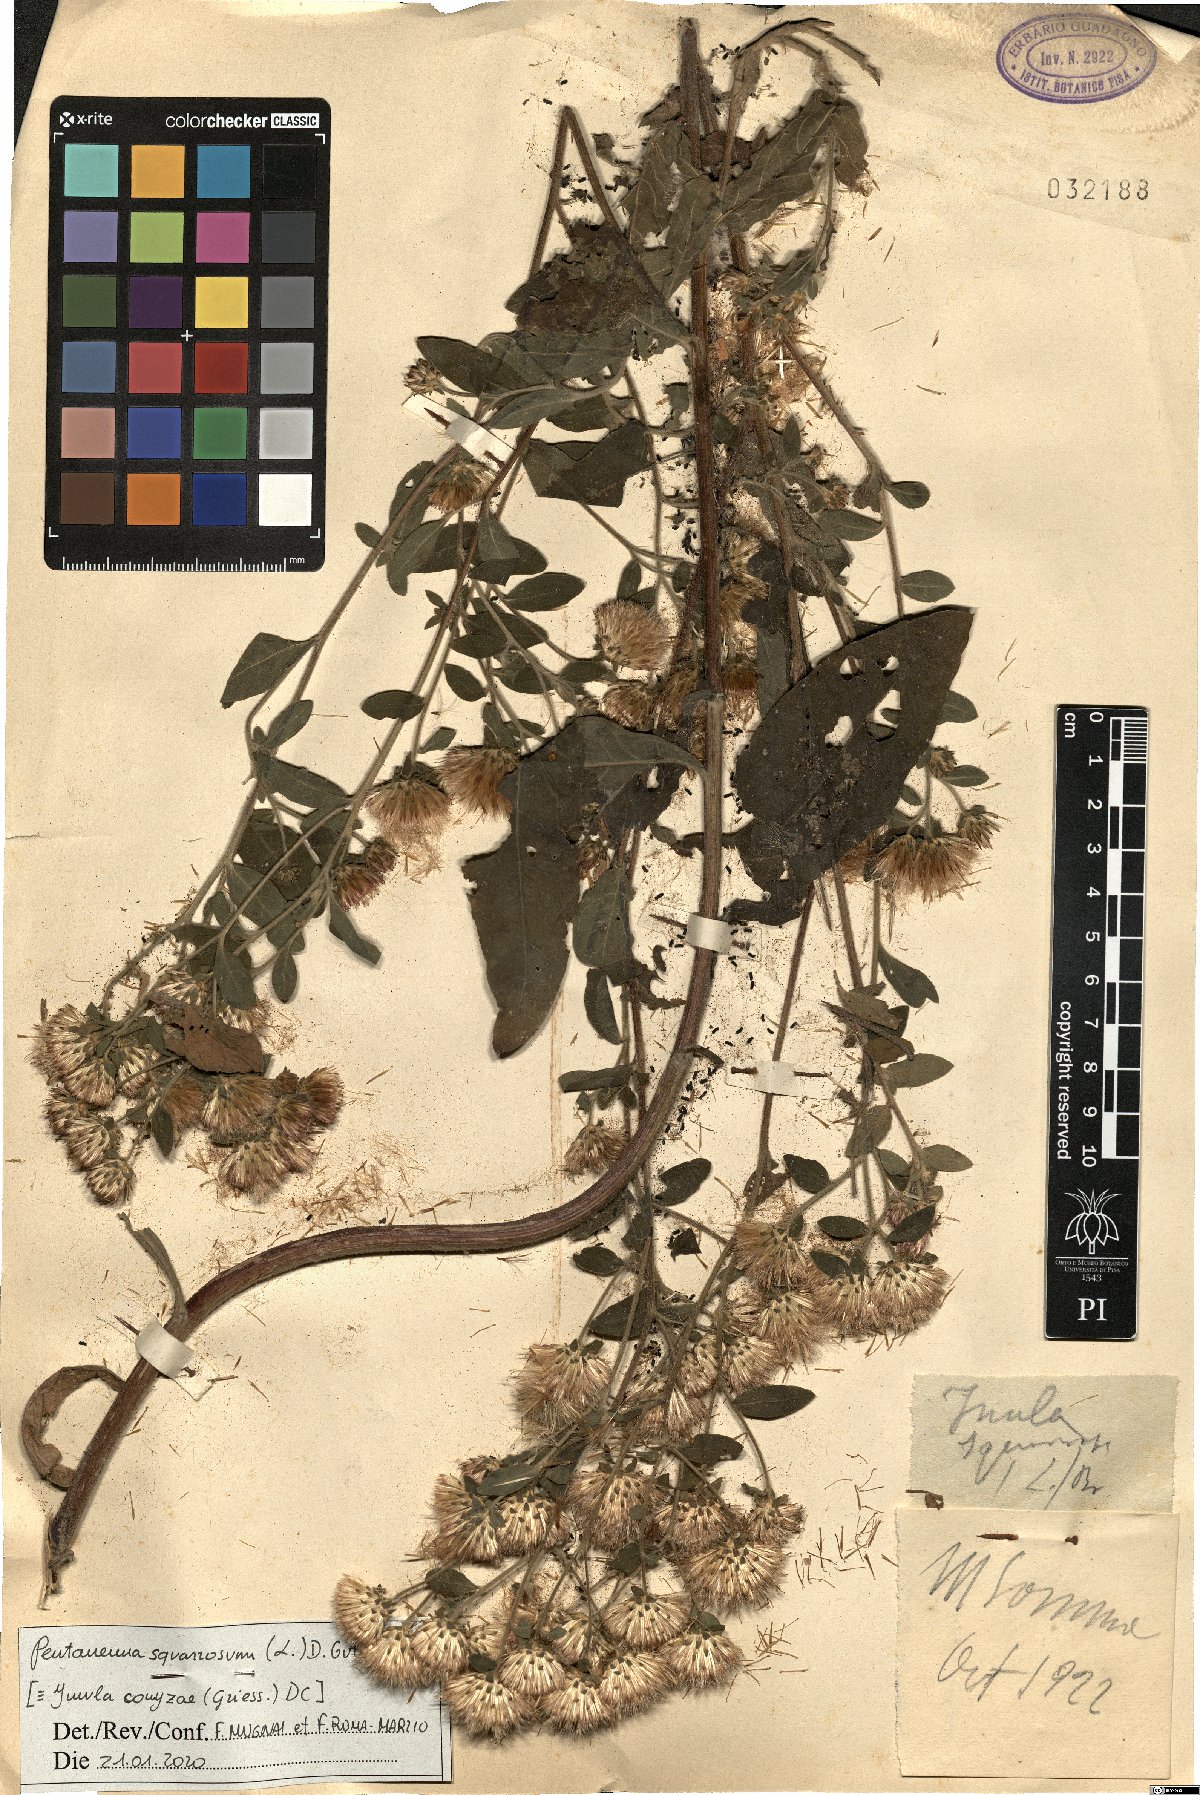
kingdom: Plantae
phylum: Tracheophyta
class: Magnoliopsida
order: Asterales
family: Asteraceae
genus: Pentanema
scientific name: Pentanema squarrosum
